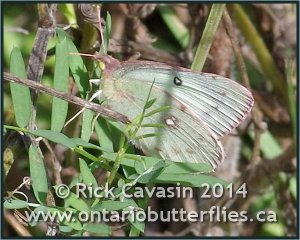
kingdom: Animalia
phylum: Arthropoda
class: Insecta
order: Lepidoptera
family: Pieridae
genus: Colias
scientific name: Colias philodice
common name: Clouded Sulphur
